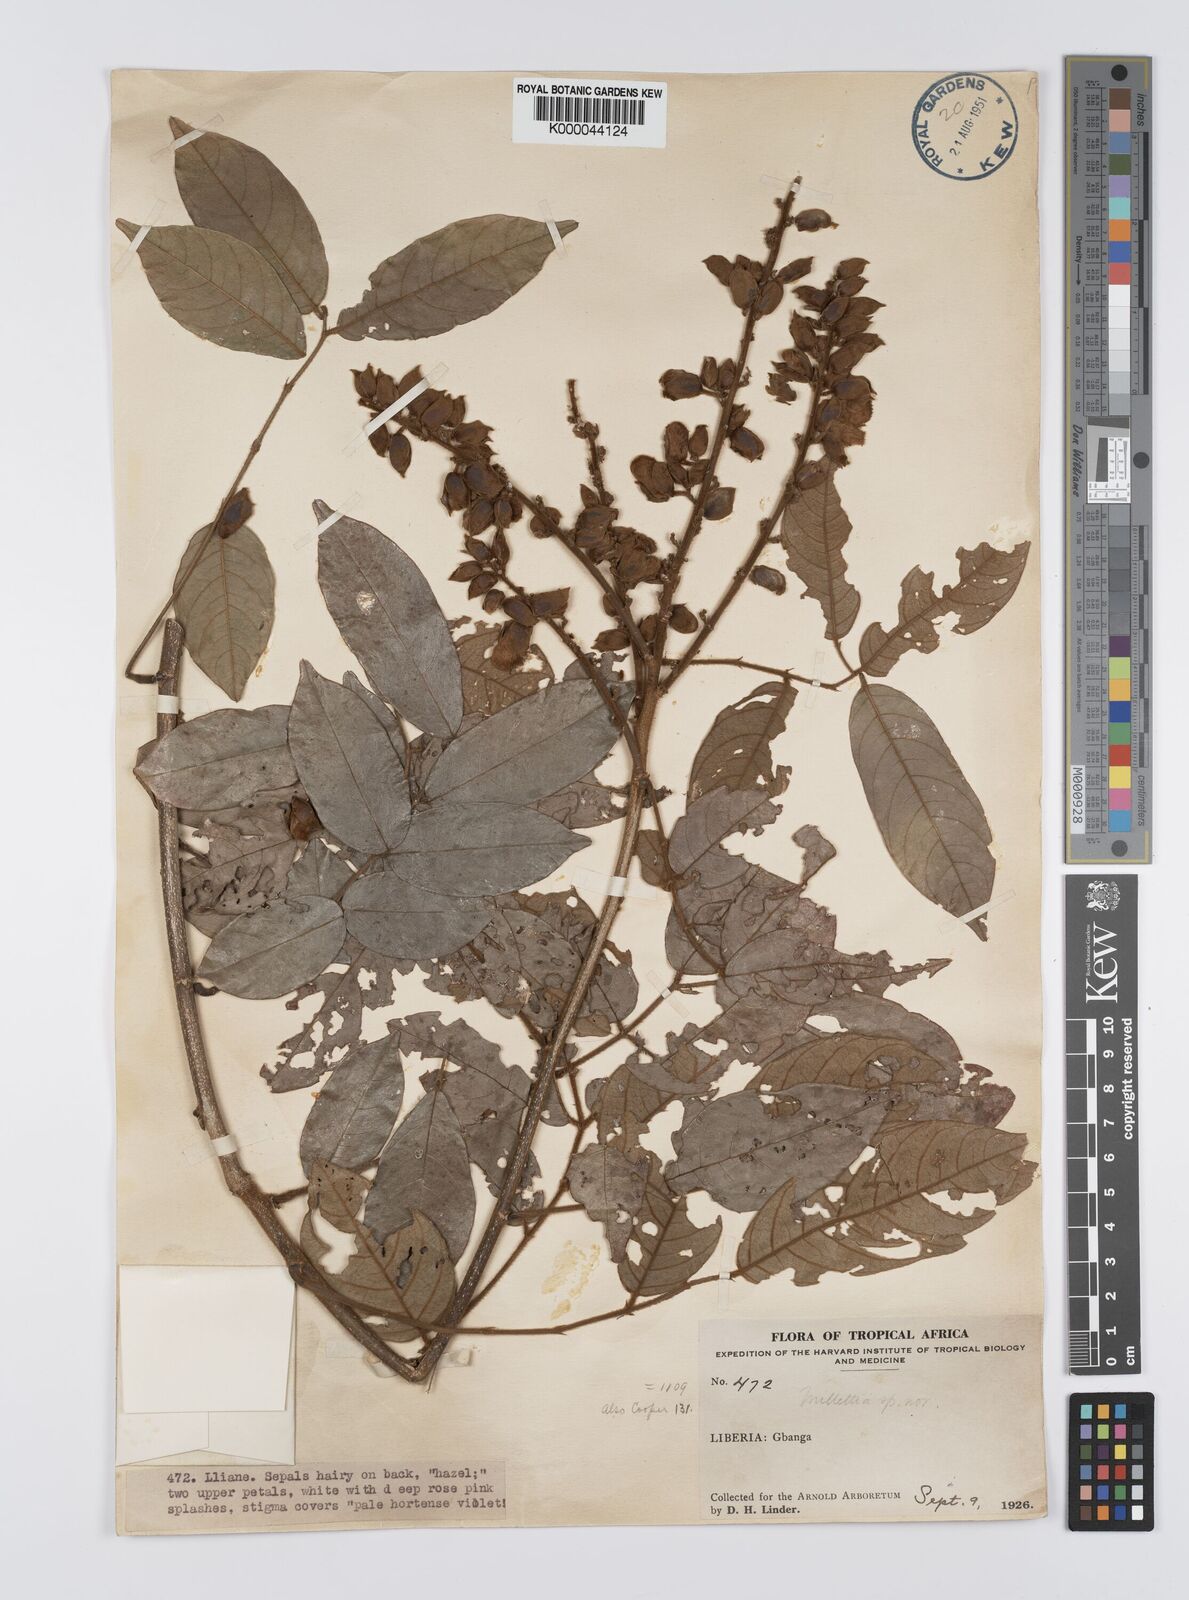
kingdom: Plantae
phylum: Tracheophyta
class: Magnoliopsida
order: Fabales
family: Fabaceae
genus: Platysepalum
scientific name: Platysepalum hirsutum
